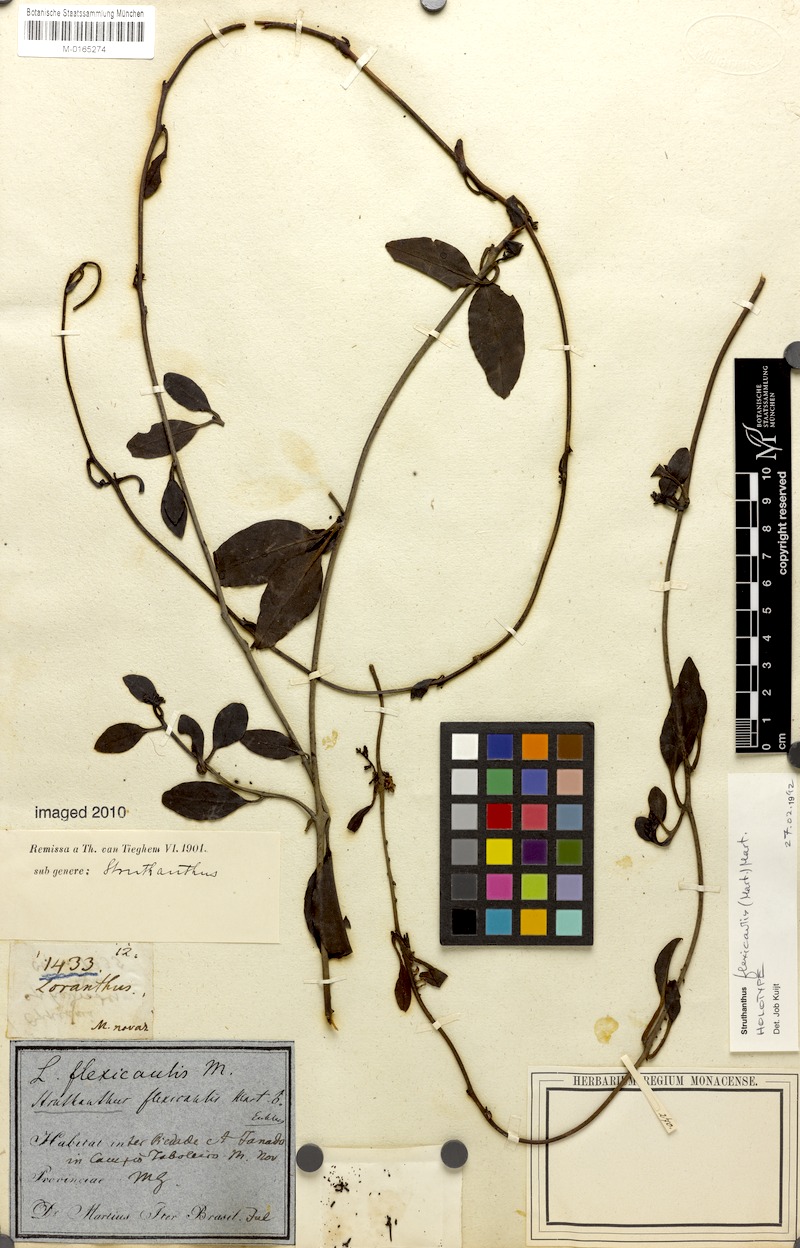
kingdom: Plantae
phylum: Tracheophyta
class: Magnoliopsida
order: Santalales
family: Loranthaceae
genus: Struthanthus
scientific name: Struthanthus flexicaulis
